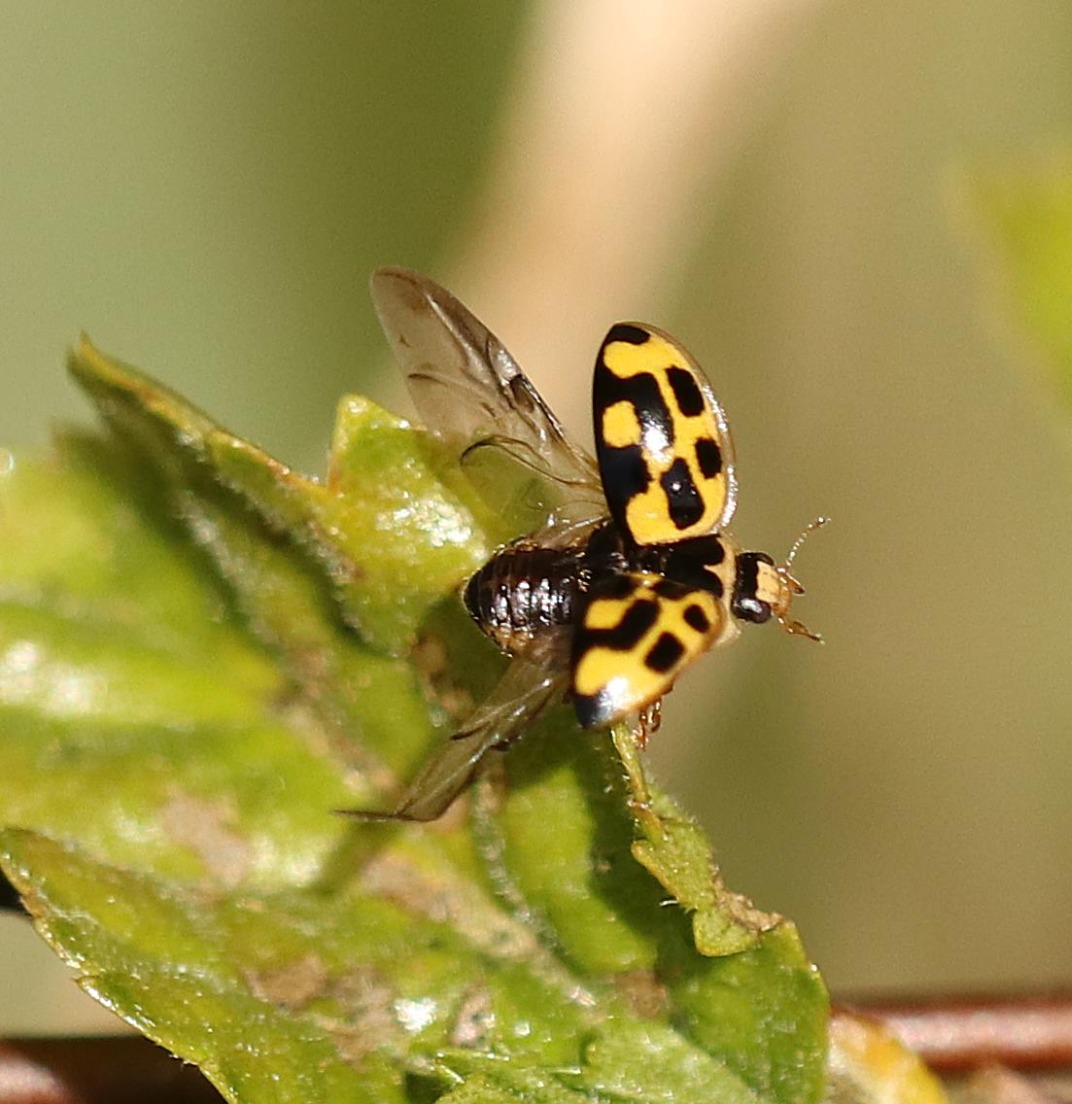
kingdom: Animalia
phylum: Arthropoda
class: Insecta
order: Coleoptera
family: Coccinellidae
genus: Propylaea
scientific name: Propylaea quatuordecimpunctata
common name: Skakbræt
